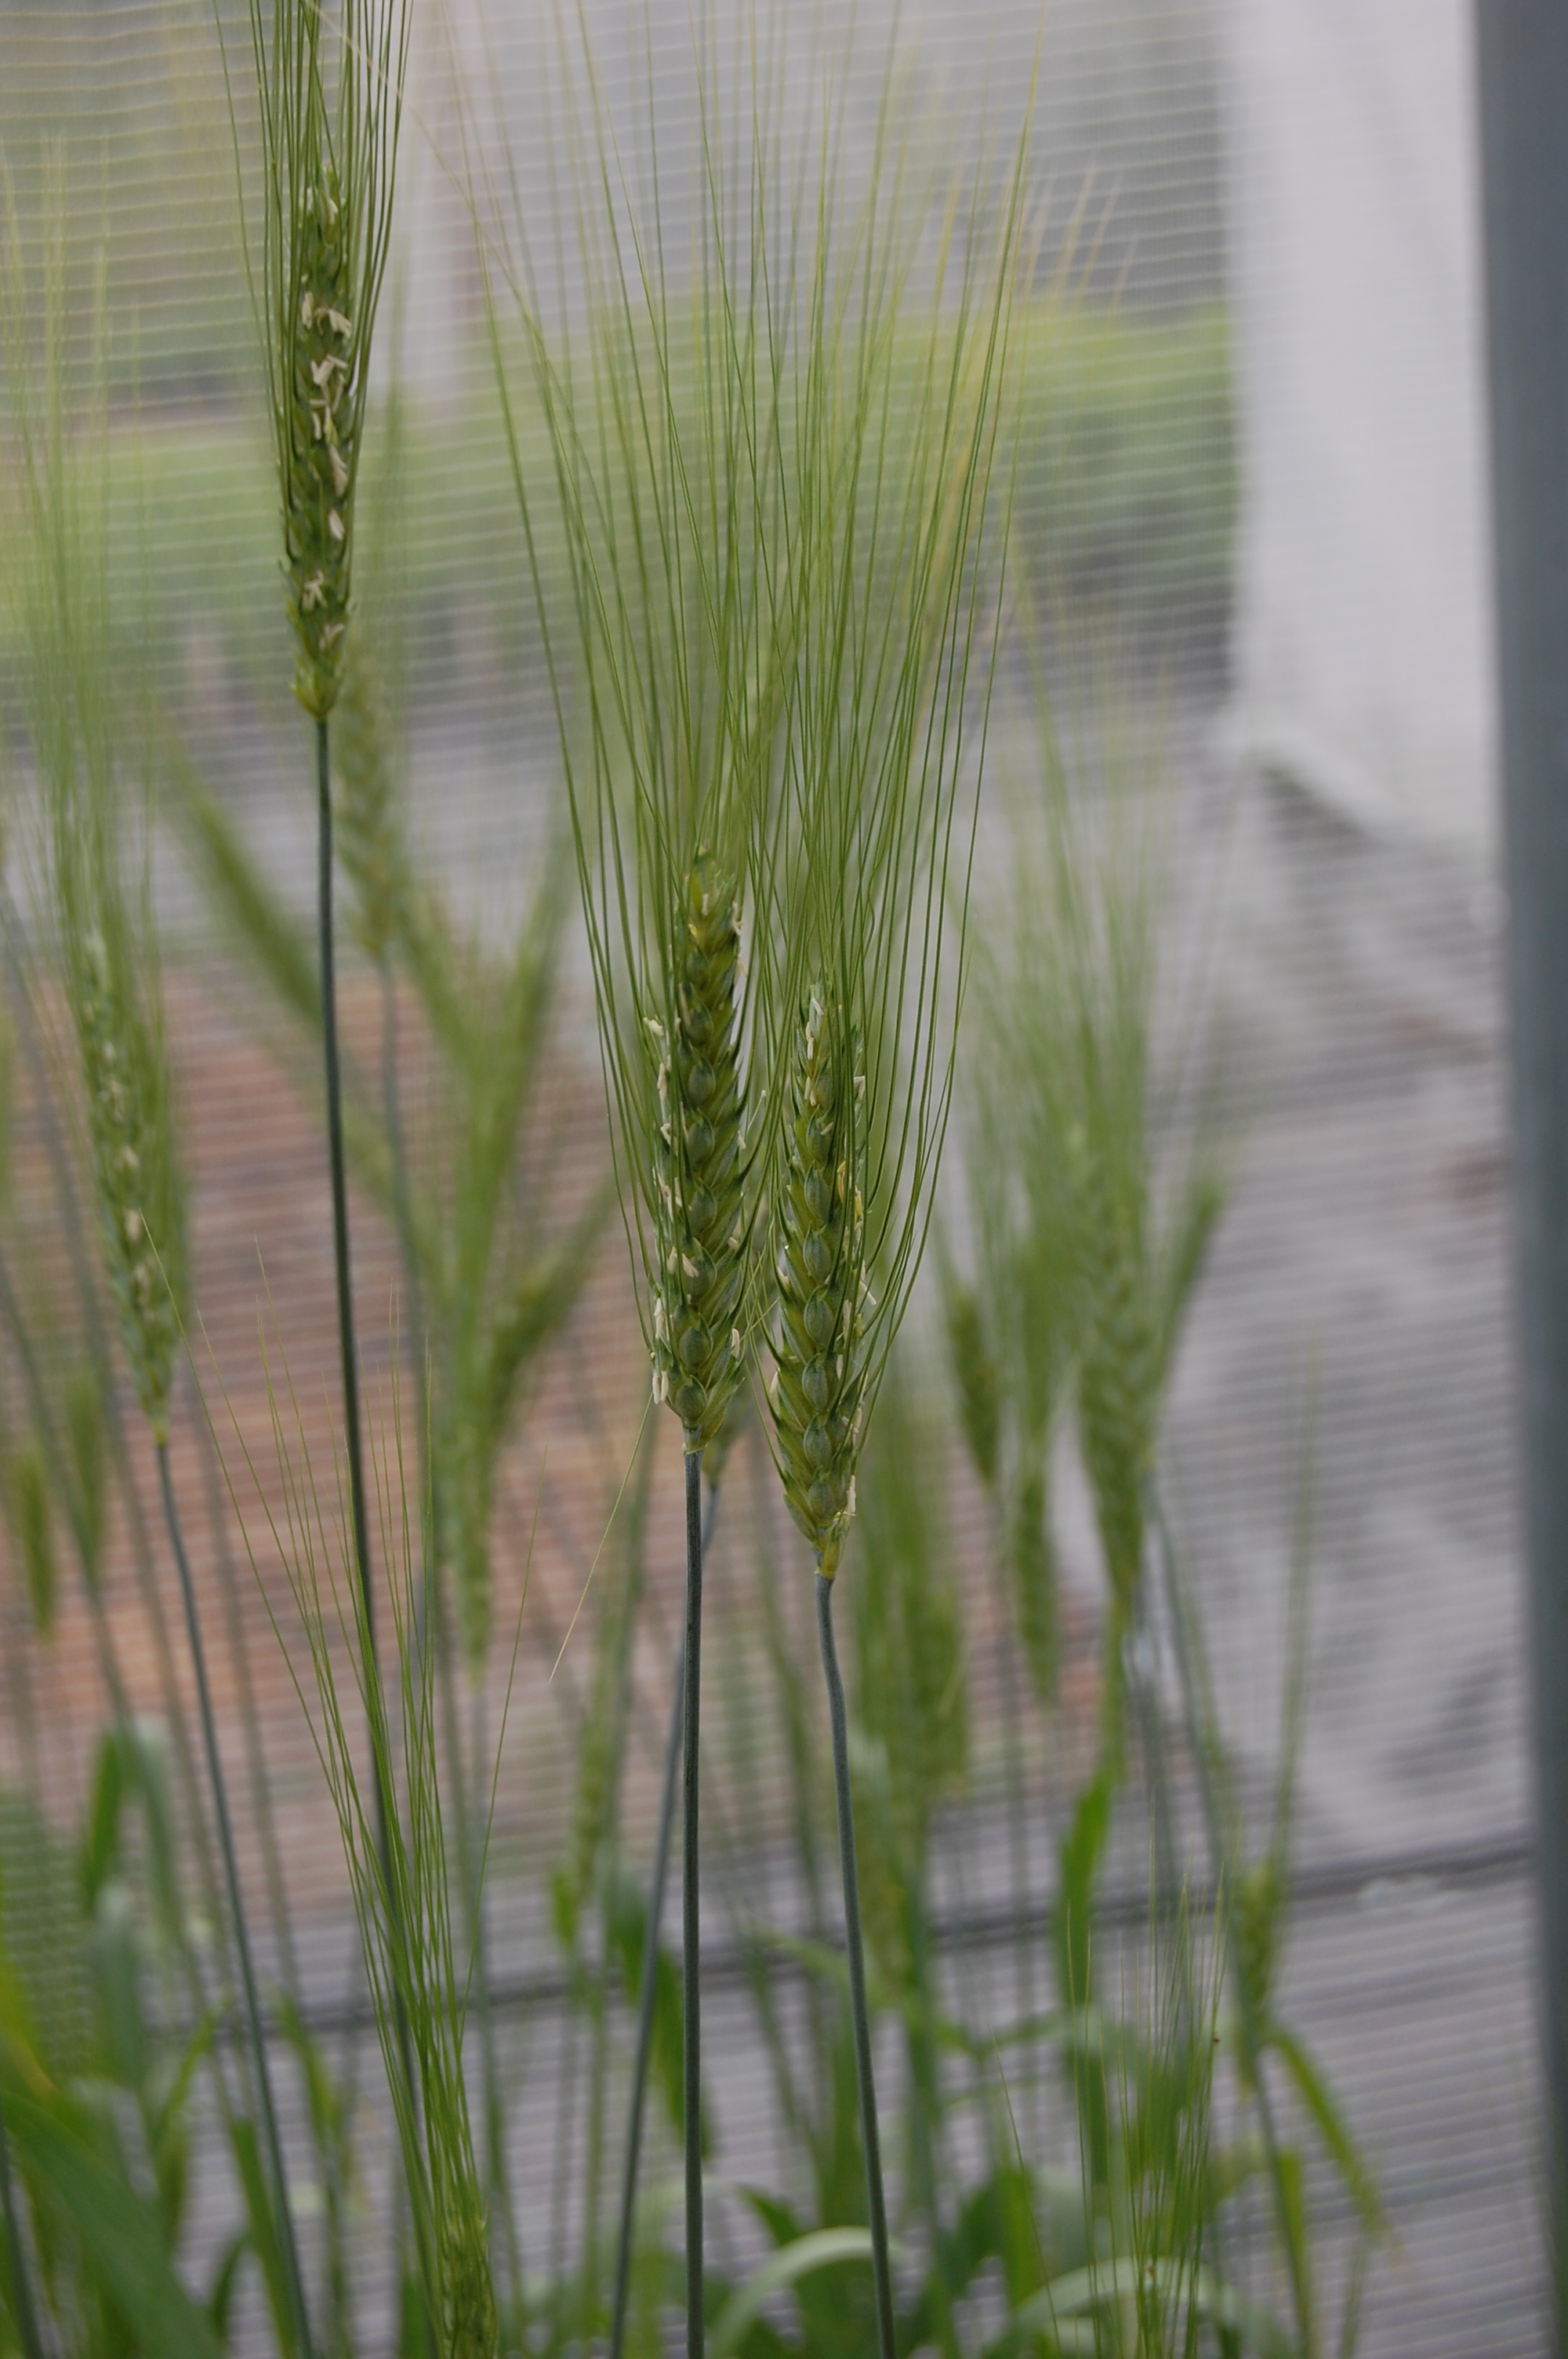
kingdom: Plantae
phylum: Tracheophyta
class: Liliopsida
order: Poales
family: Poaceae
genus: Triticum
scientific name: Triticum aestivum
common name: Common wheat
